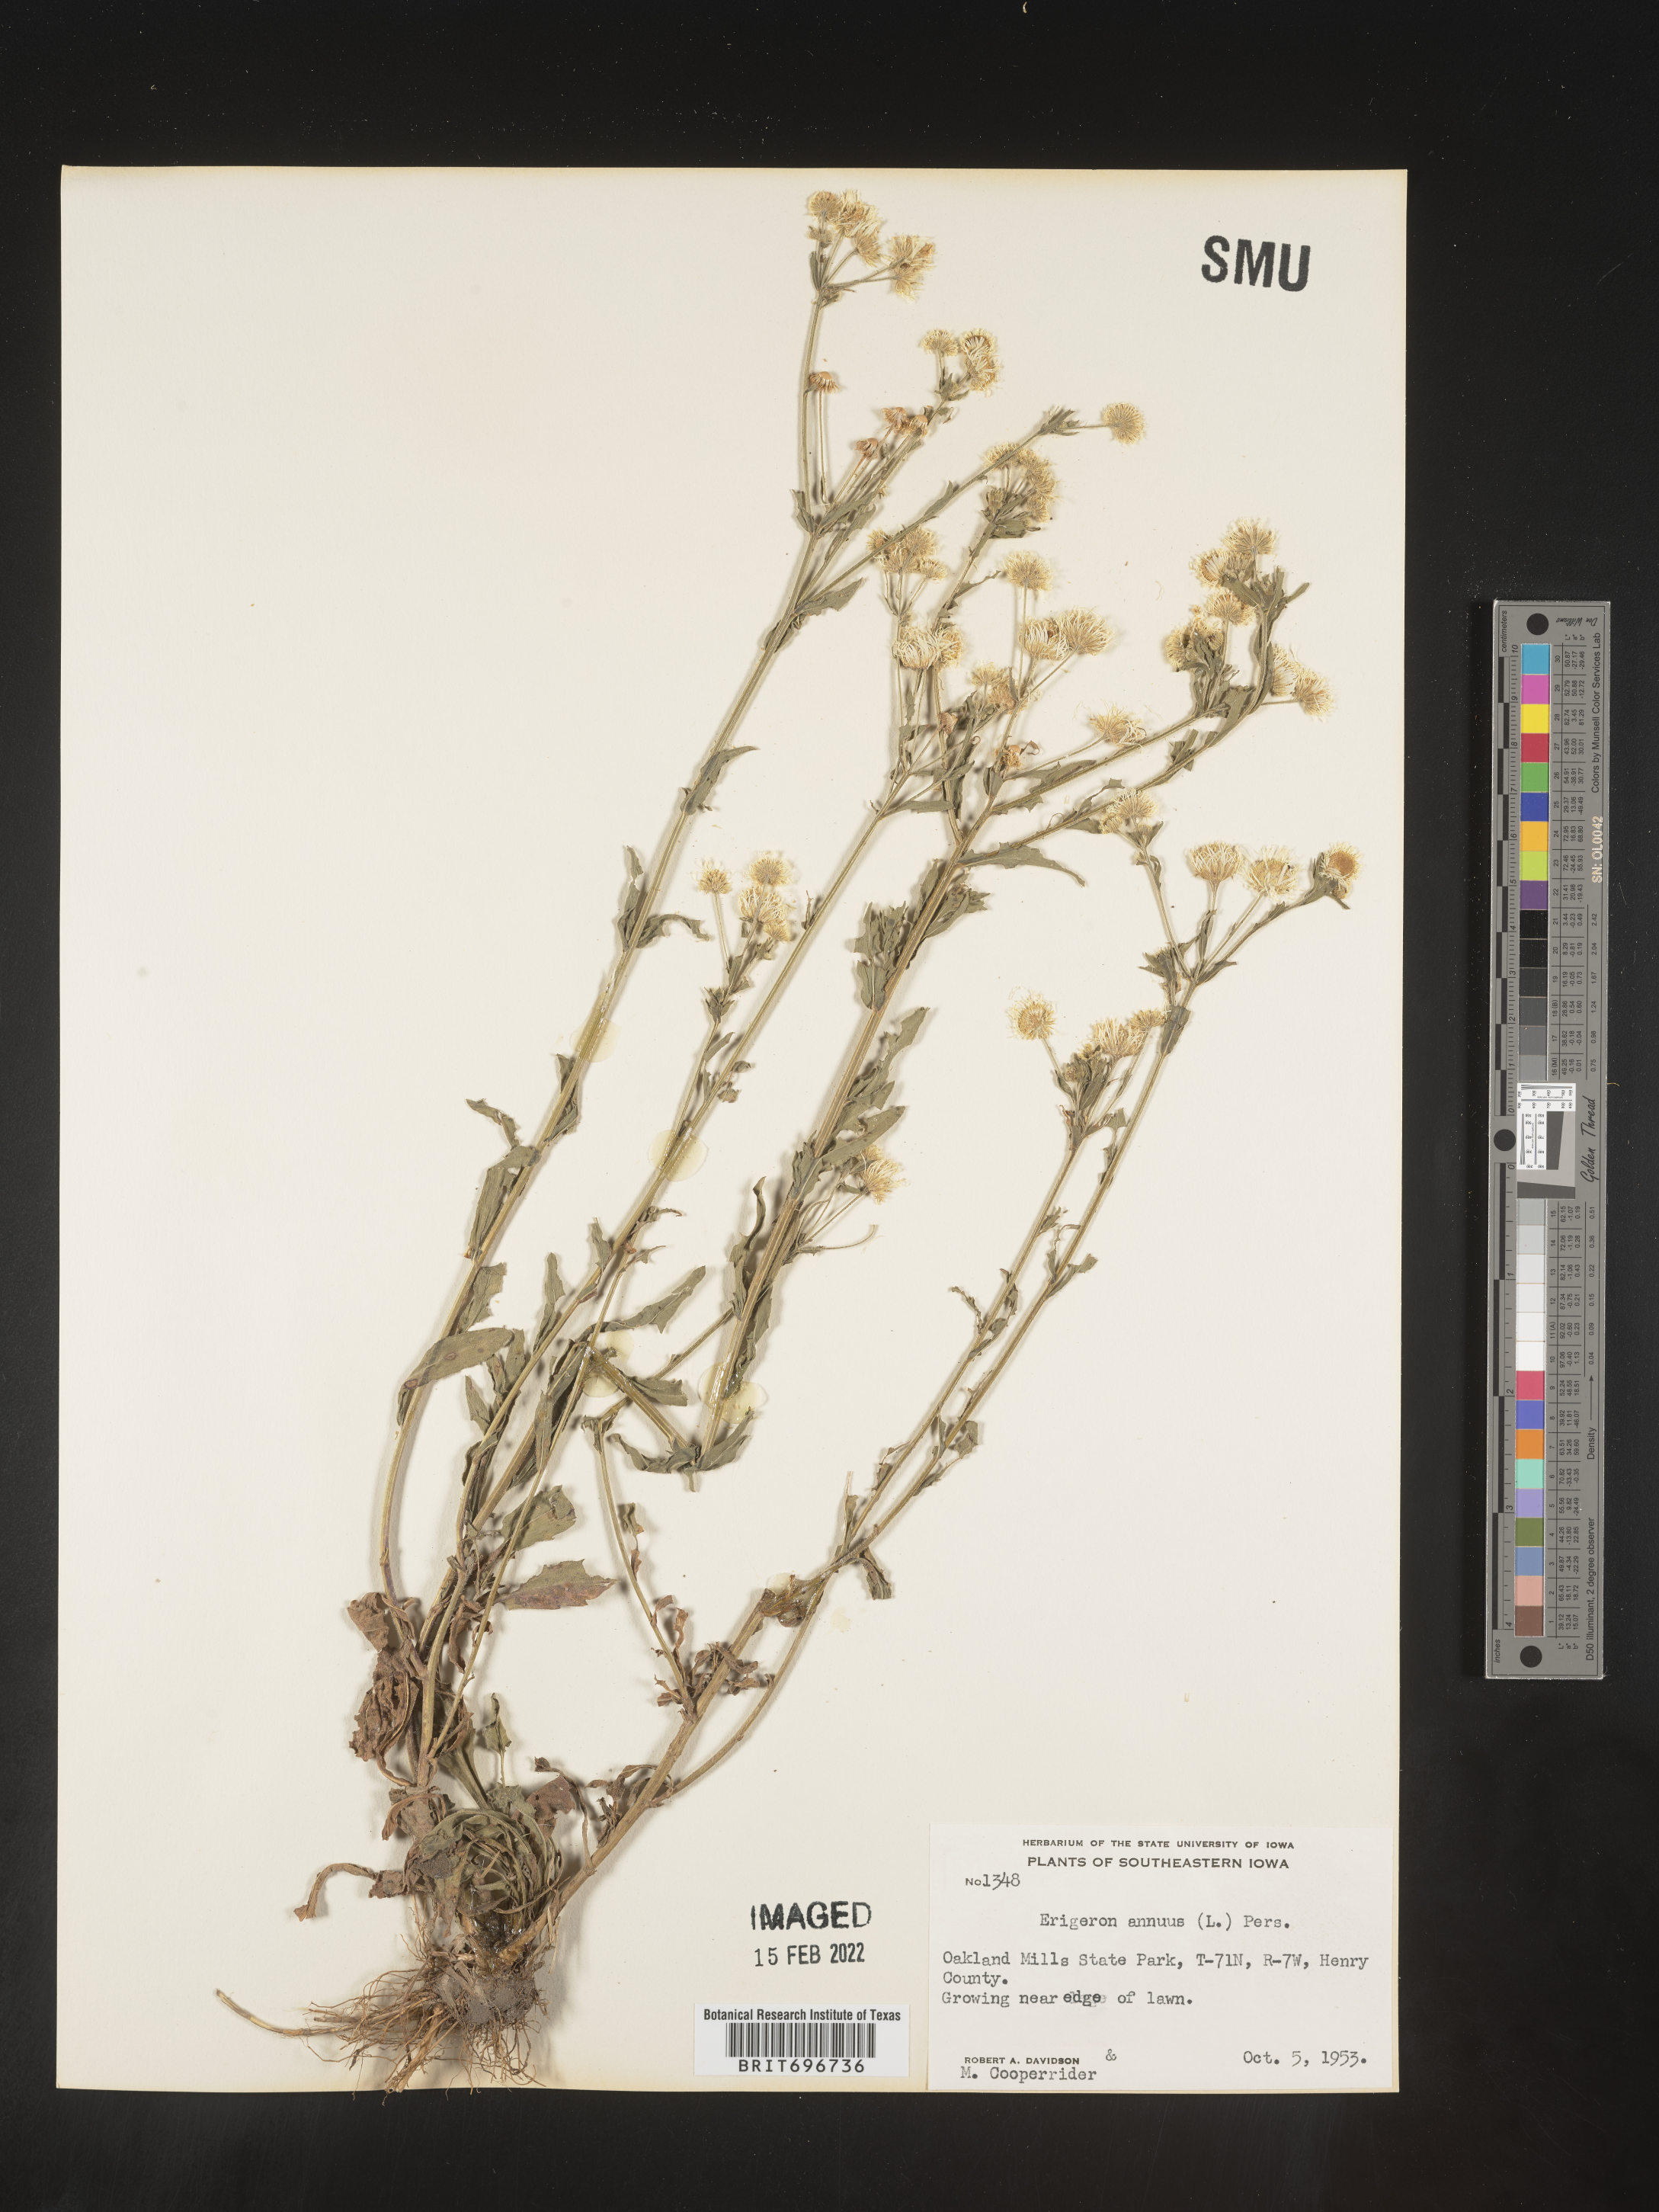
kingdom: Plantae
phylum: Tracheophyta
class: Magnoliopsida
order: Asterales
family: Asteraceae
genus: Erigeron
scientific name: Erigeron annuus
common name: Tall fleabane
